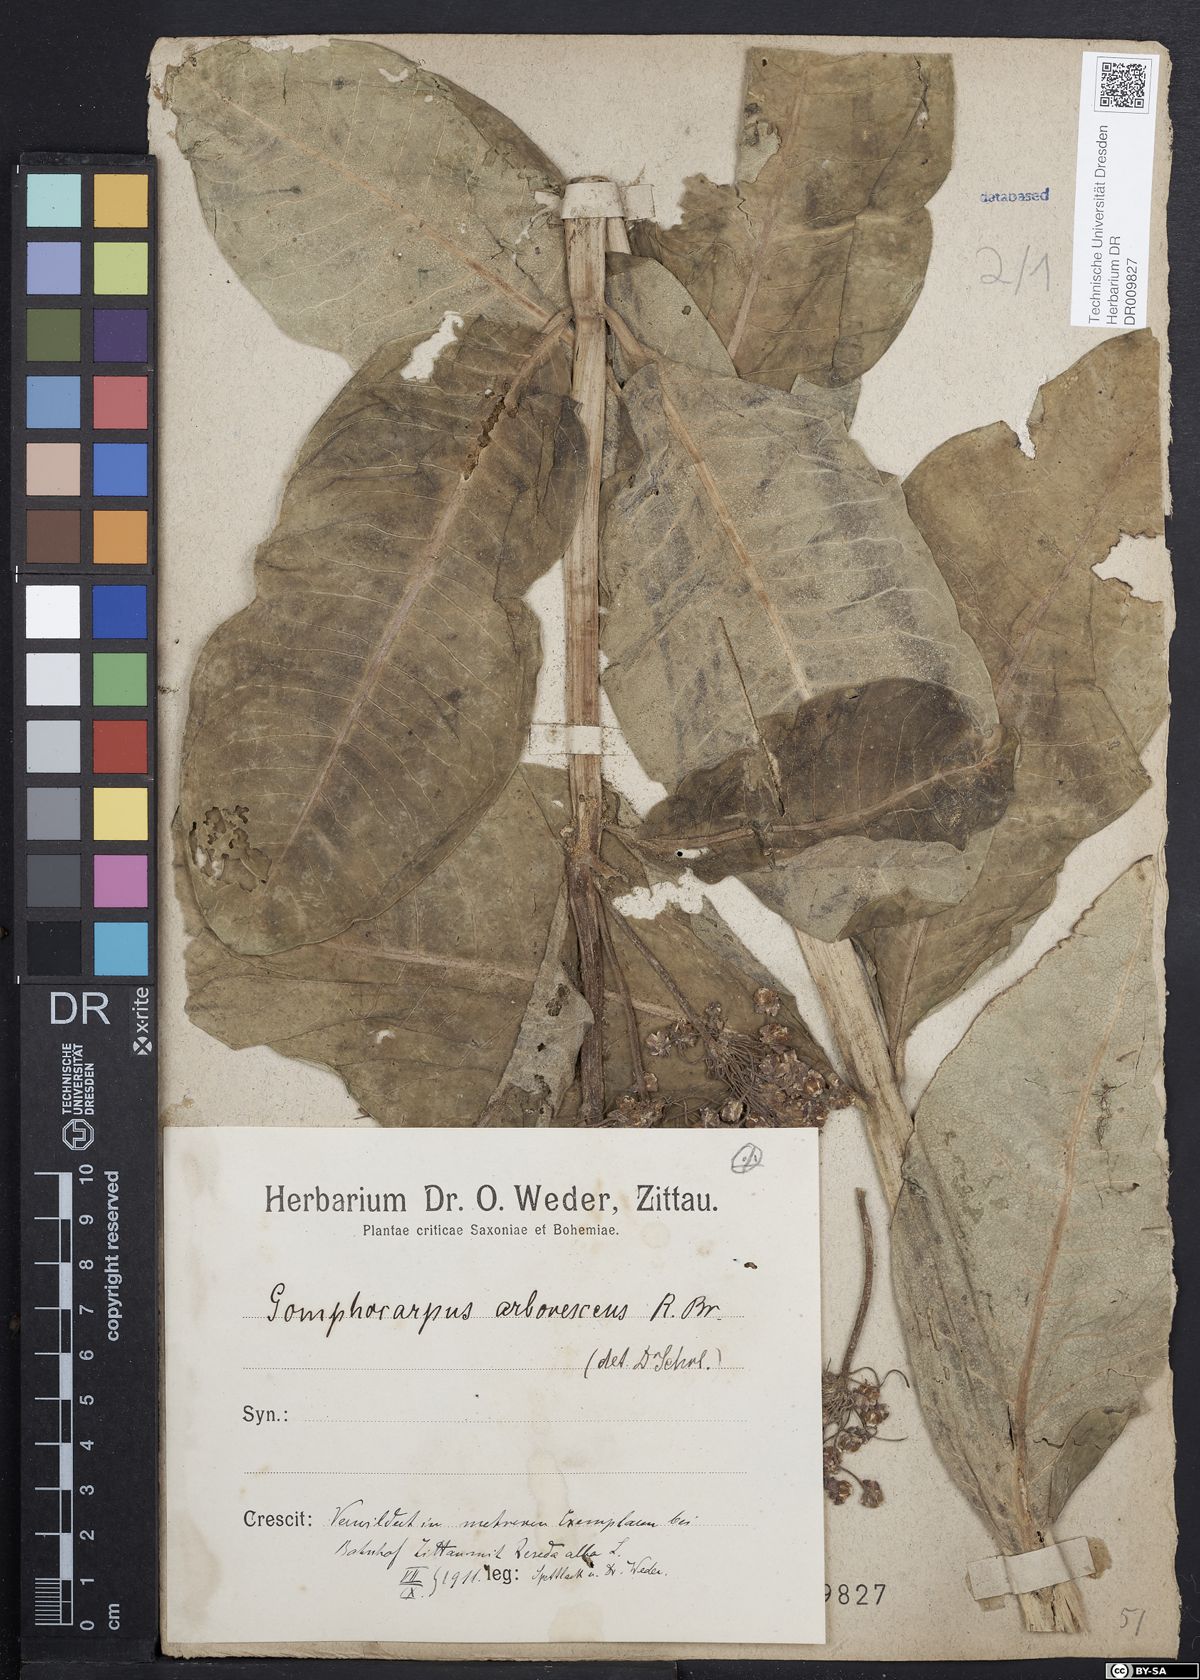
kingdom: Plantae
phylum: Tracheophyta
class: Magnoliopsida
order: Gentianales
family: Apocynaceae
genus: Gomphocarpus
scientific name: Gomphocarpus cancellatus
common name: Wild cotton
